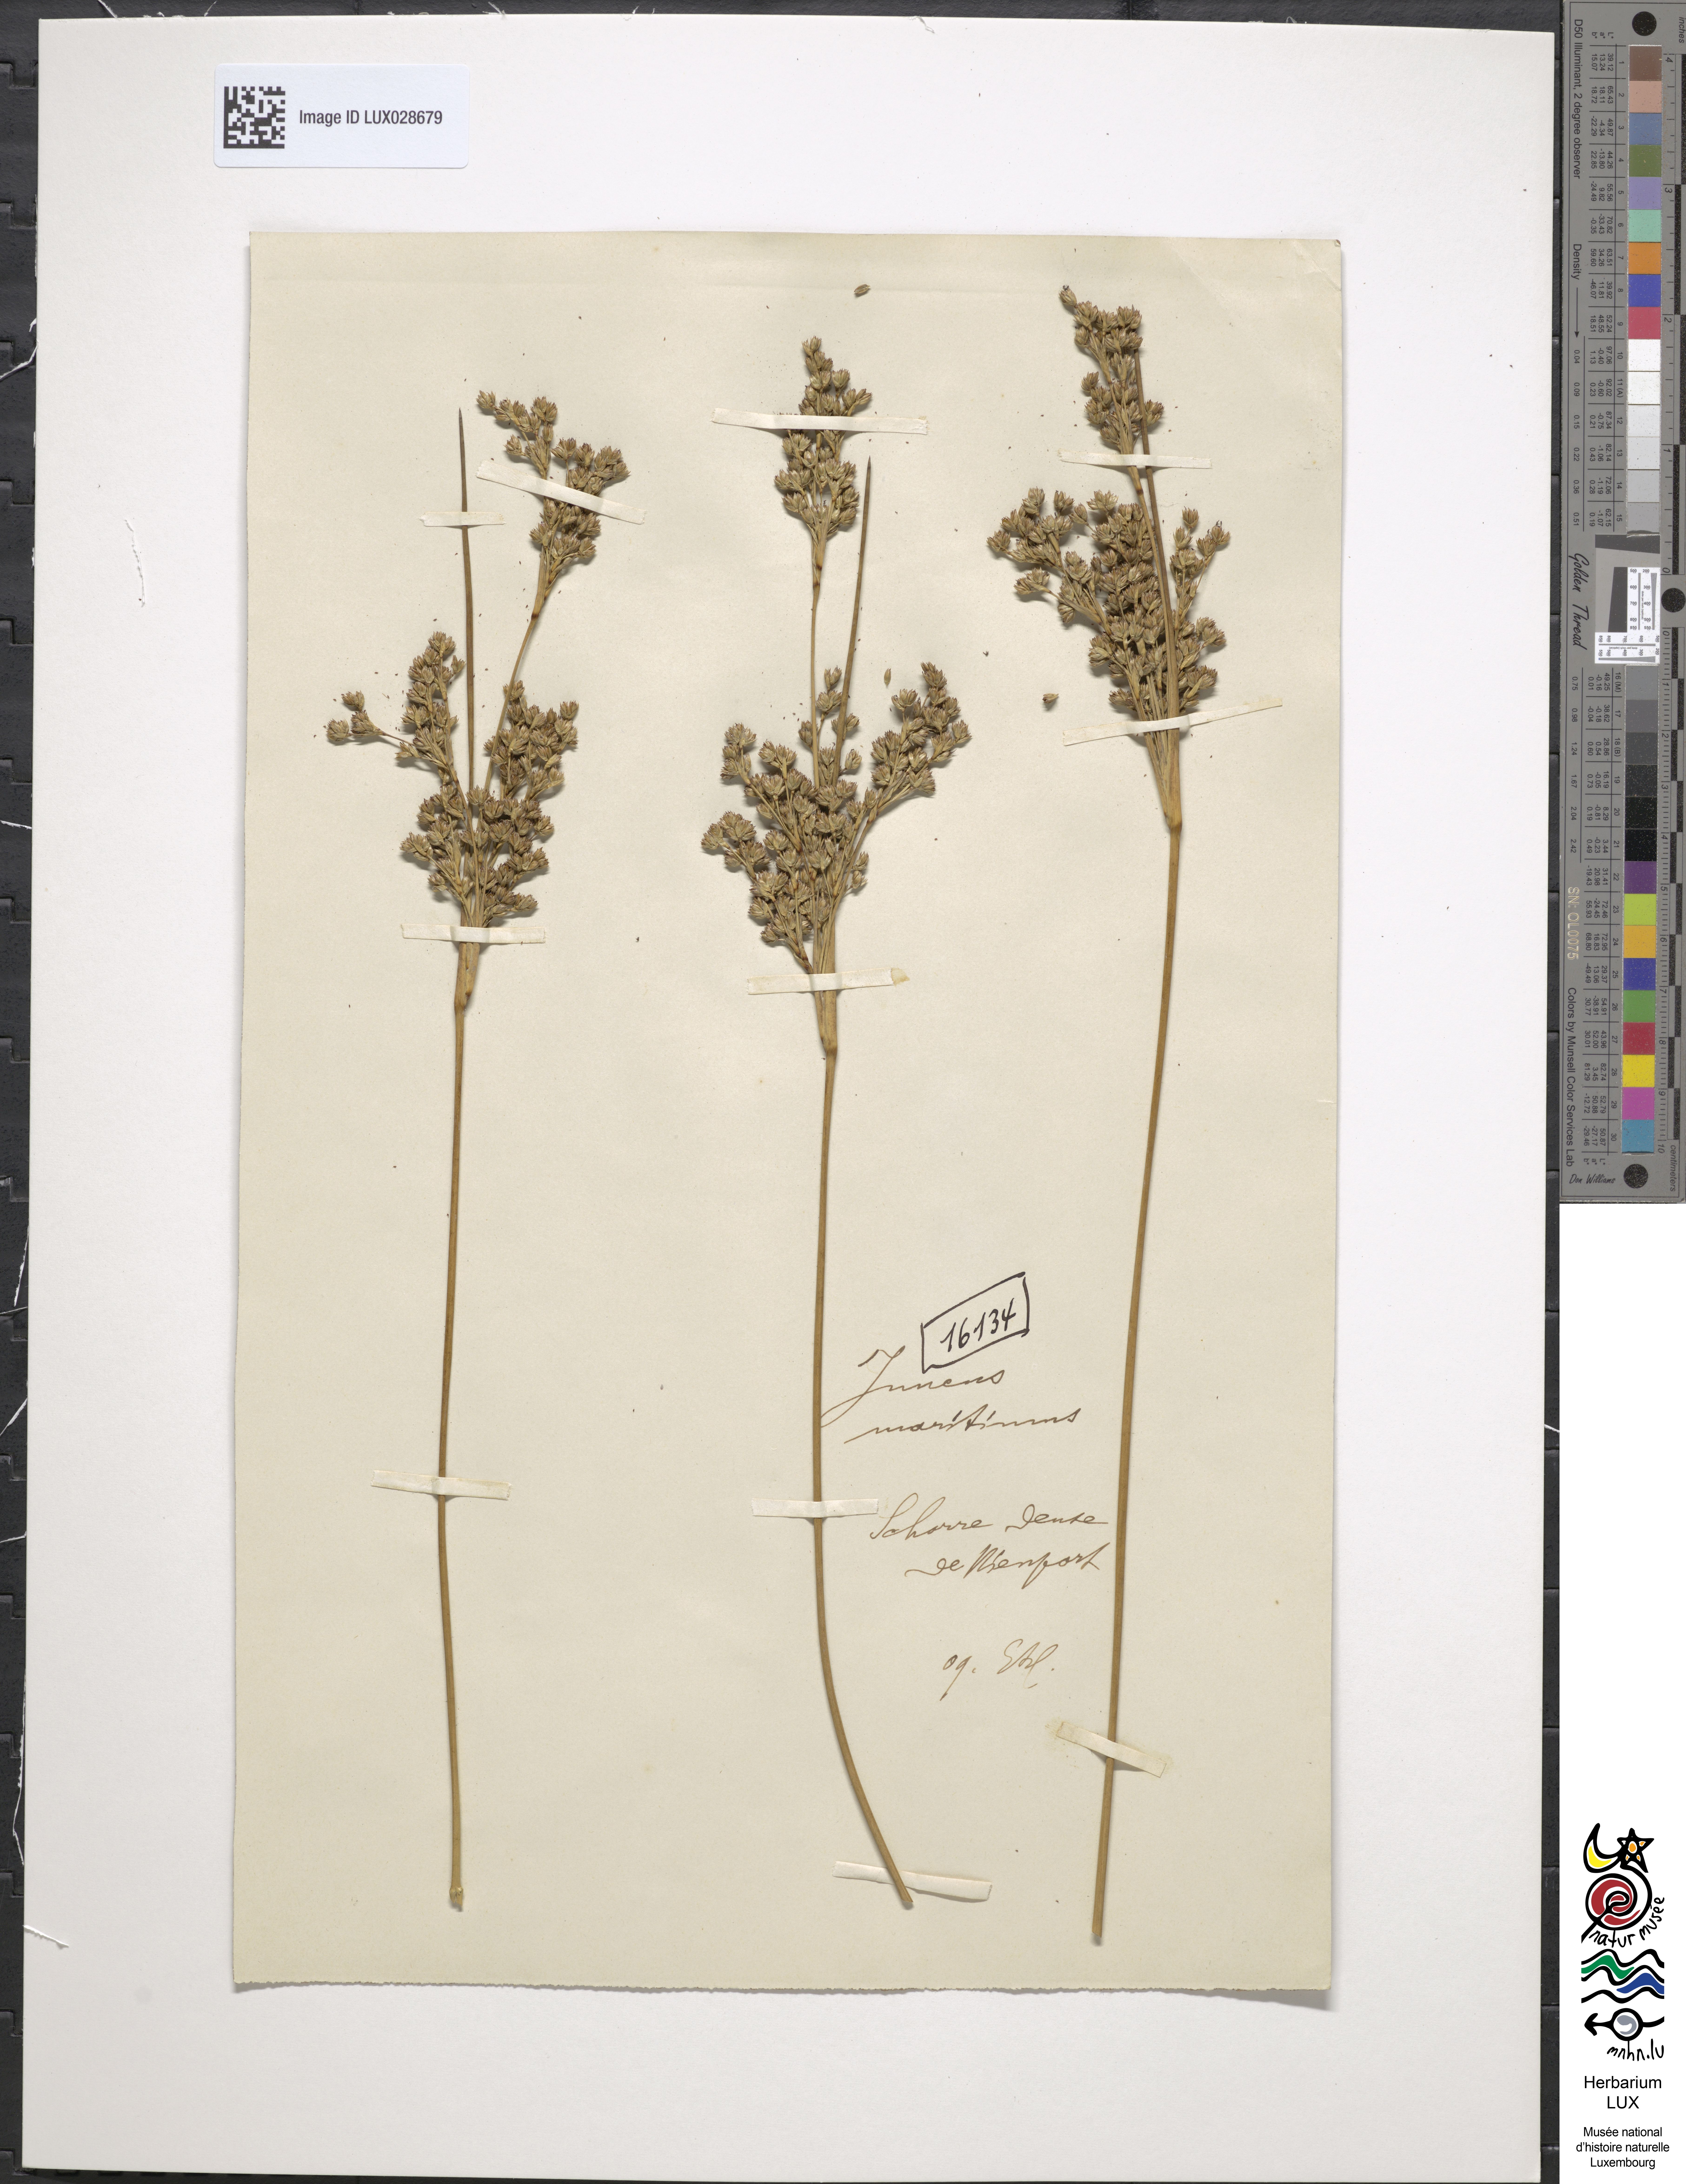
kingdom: Plantae
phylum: Tracheophyta
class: Liliopsida
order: Poales
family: Juncaceae
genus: Juncus
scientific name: Juncus maritimus
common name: Sea rush
